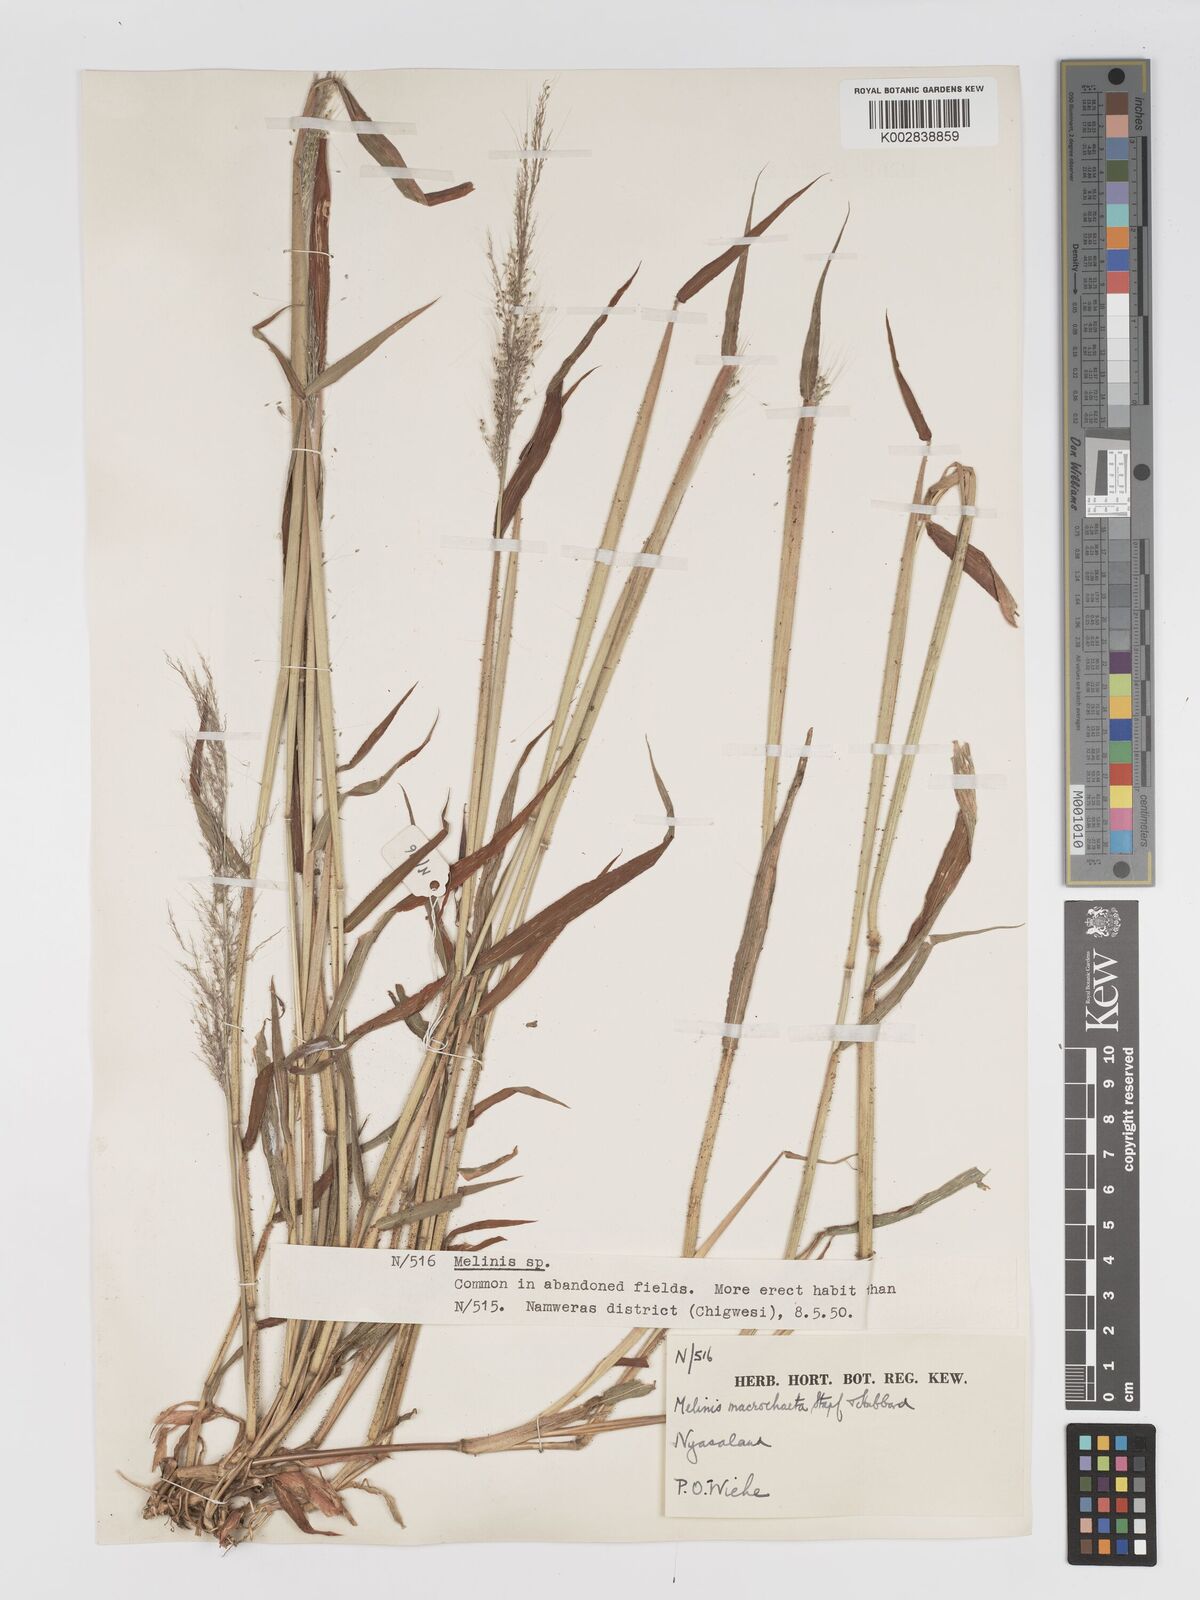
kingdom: Plantae
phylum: Tracheophyta
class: Liliopsida
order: Poales
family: Poaceae
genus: Melinis
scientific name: Melinis macrochaeta
